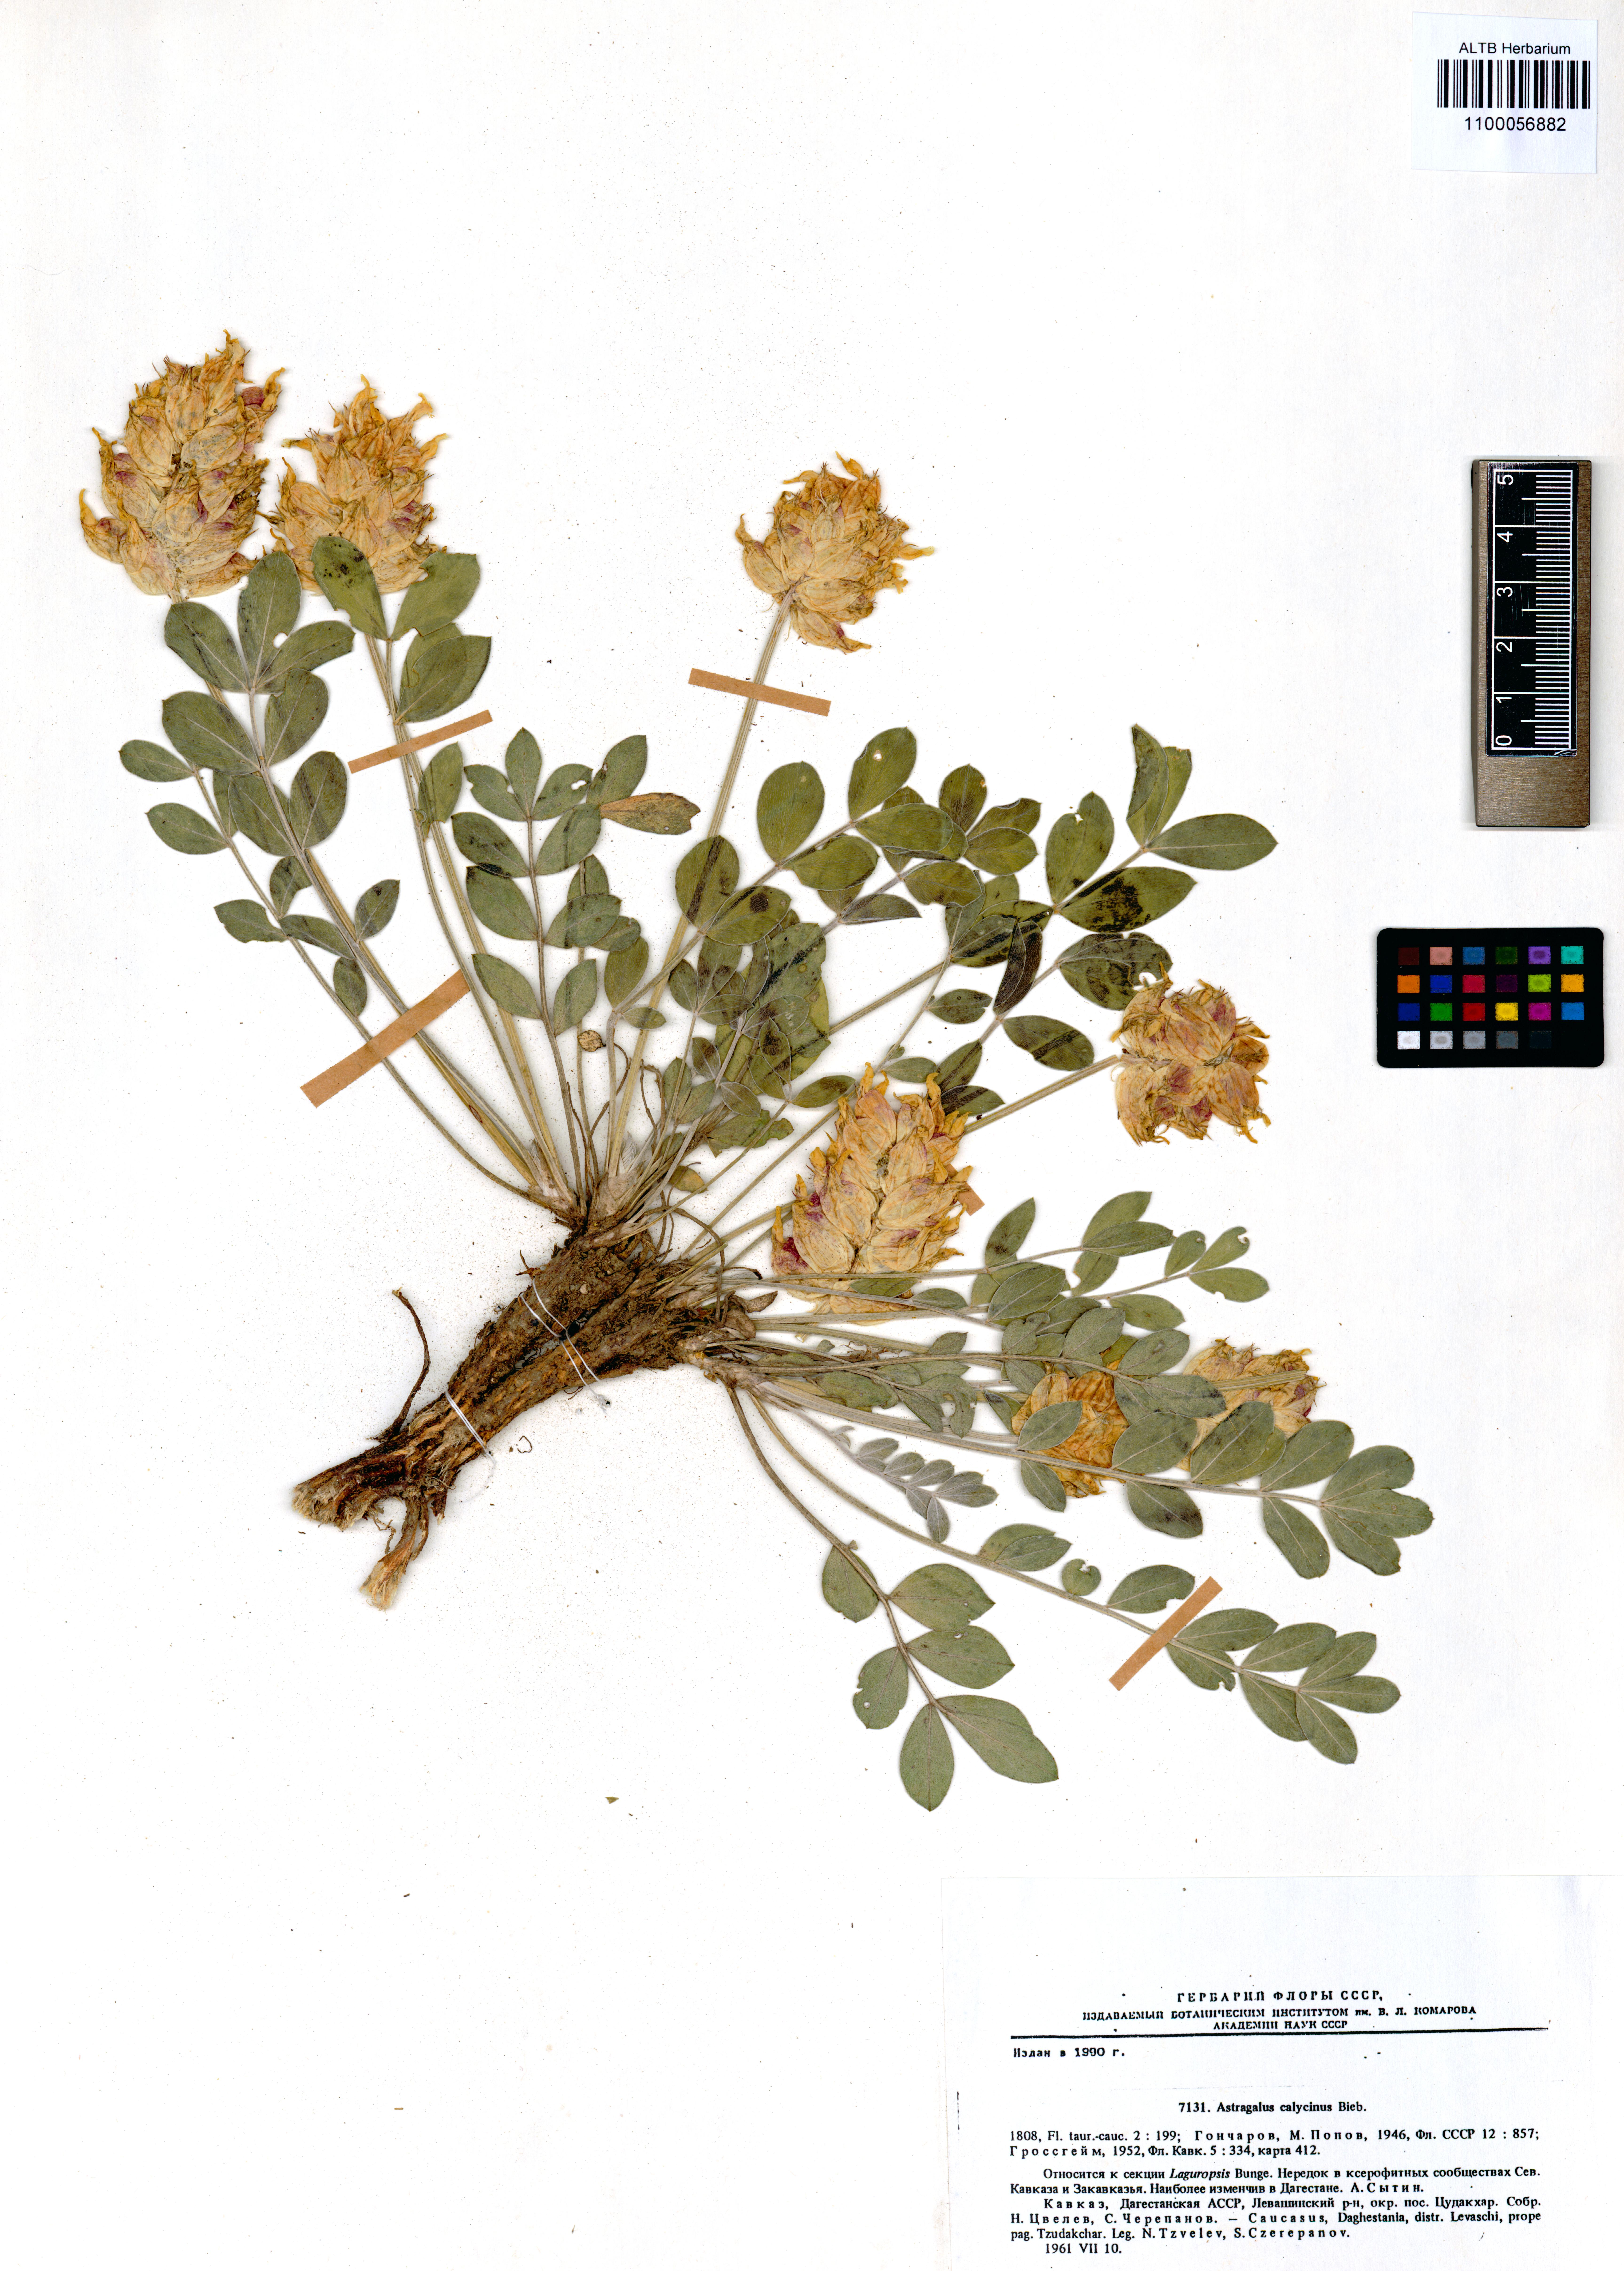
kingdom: Plantae
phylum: Tracheophyta
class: Magnoliopsida
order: Fabales
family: Fabaceae
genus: Astragalus
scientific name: Astragalus calycinus
